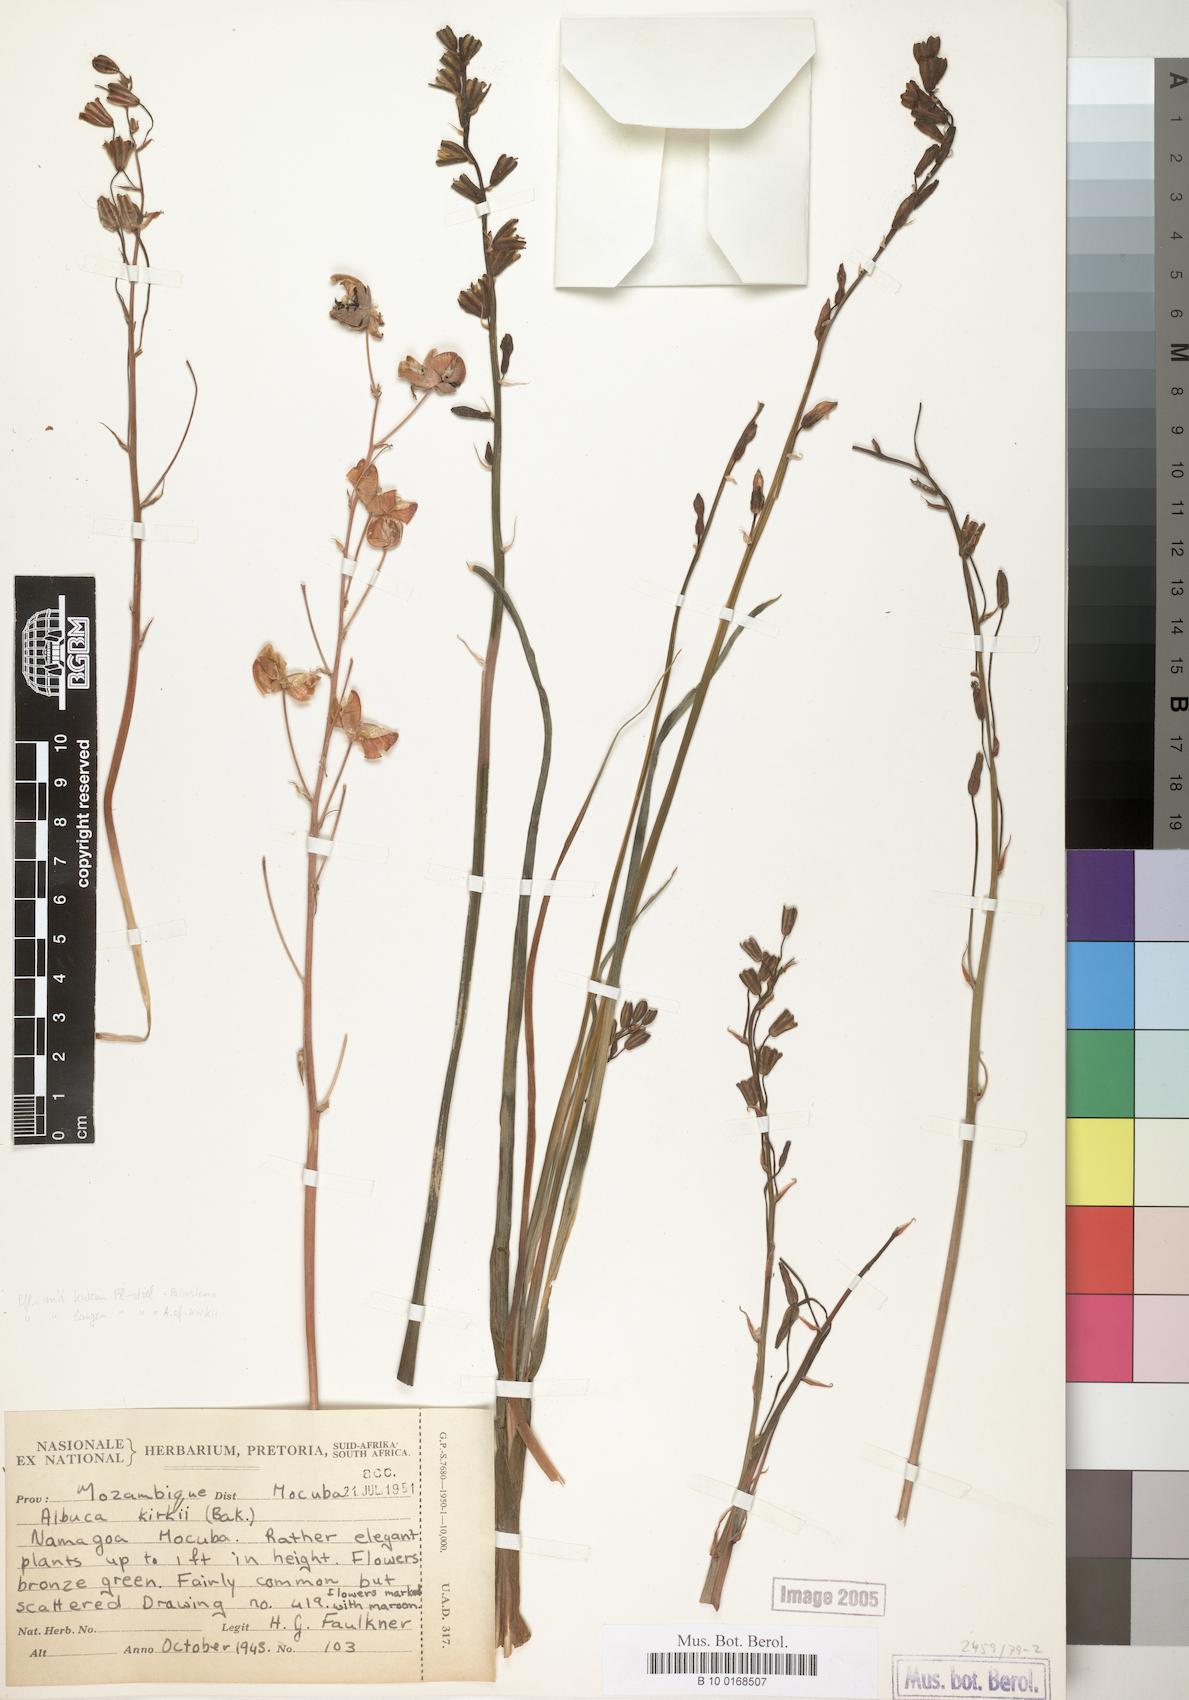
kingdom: Plantae
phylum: Tracheophyta
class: Liliopsida
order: Asparagales
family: Asparagaceae
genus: Albuca
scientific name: Albuca kirkii
